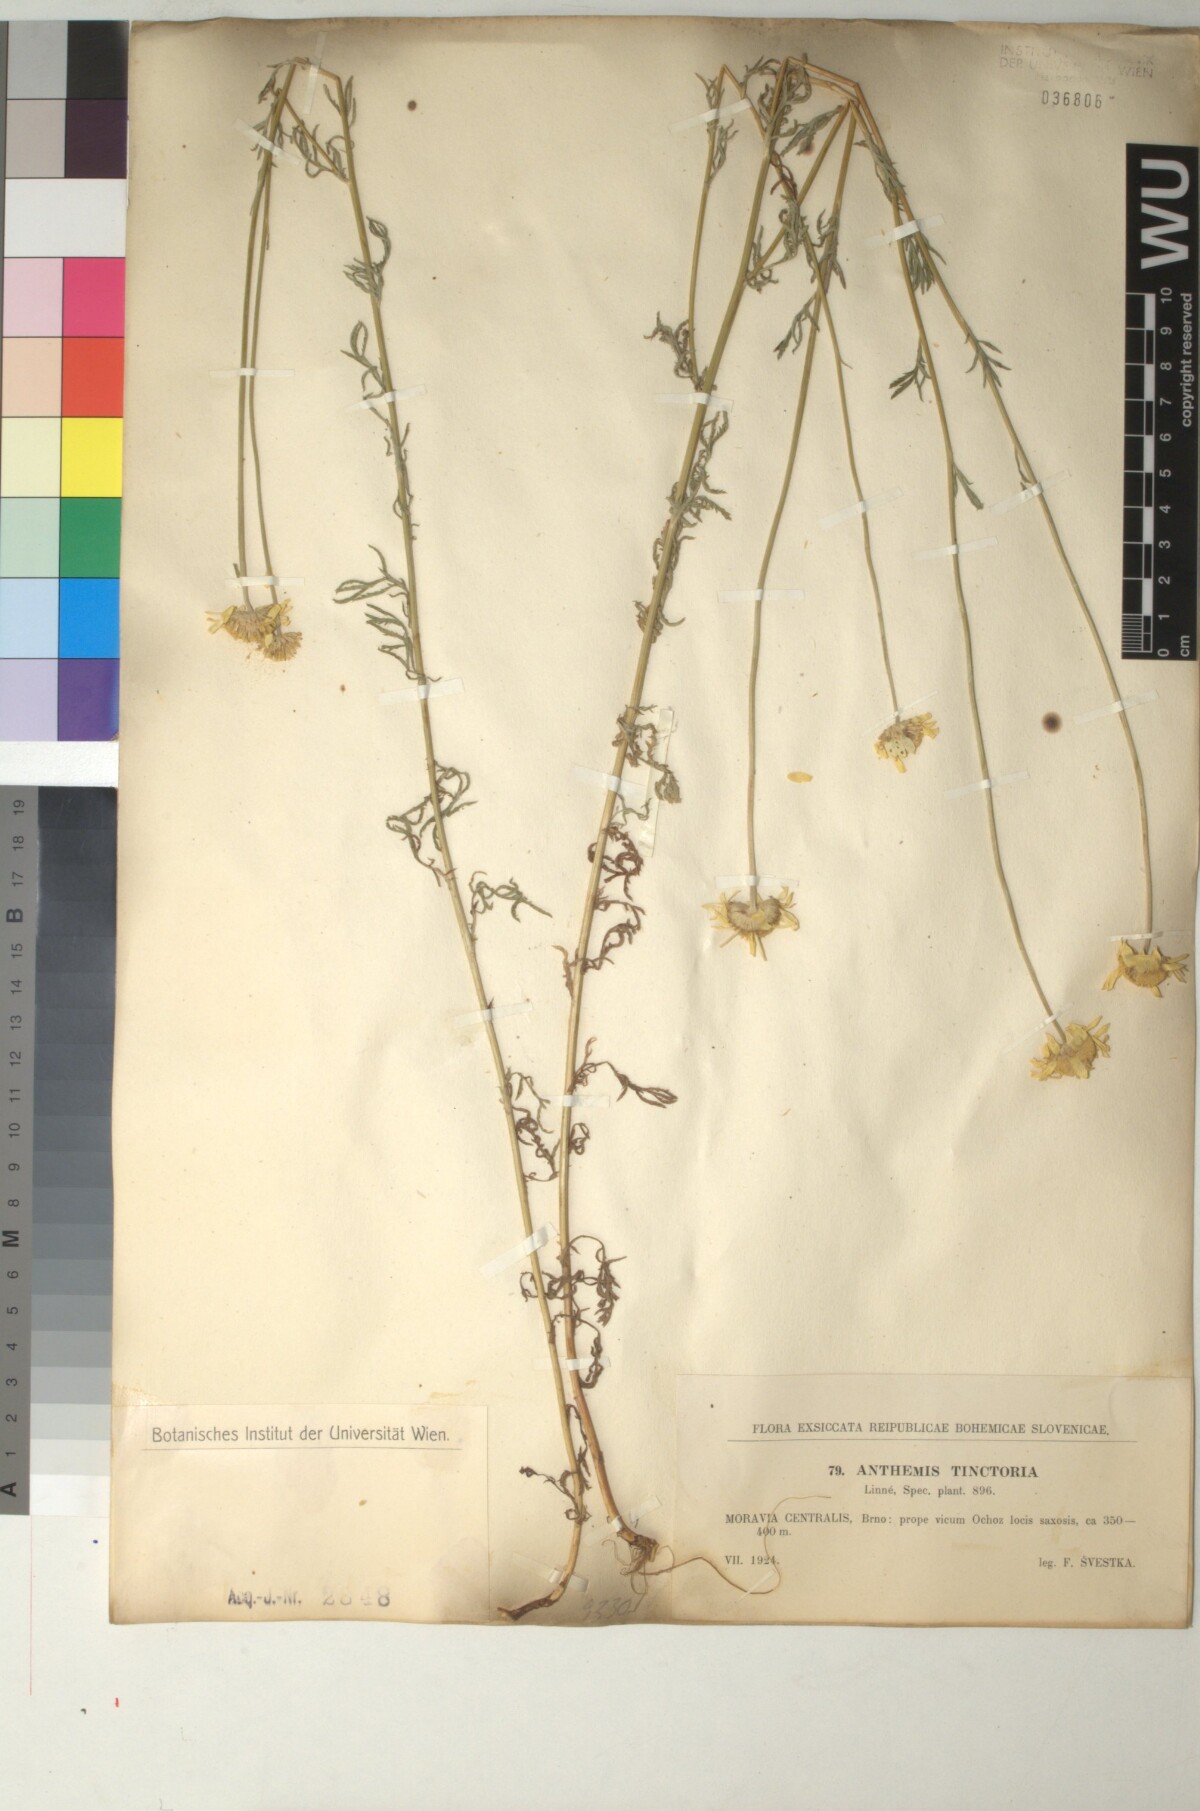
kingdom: Plantae
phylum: Tracheophyta
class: Magnoliopsida
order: Asterales
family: Asteraceae
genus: Cota
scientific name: Cota tinctoria
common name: Golden chamomile
